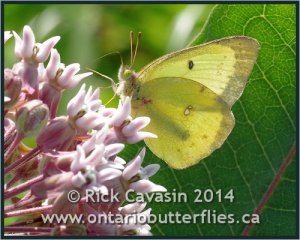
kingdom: Animalia
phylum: Arthropoda
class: Insecta
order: Lepidoptera
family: Pieridae
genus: Colias
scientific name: Colias philodice
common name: Clouded Sulphur
